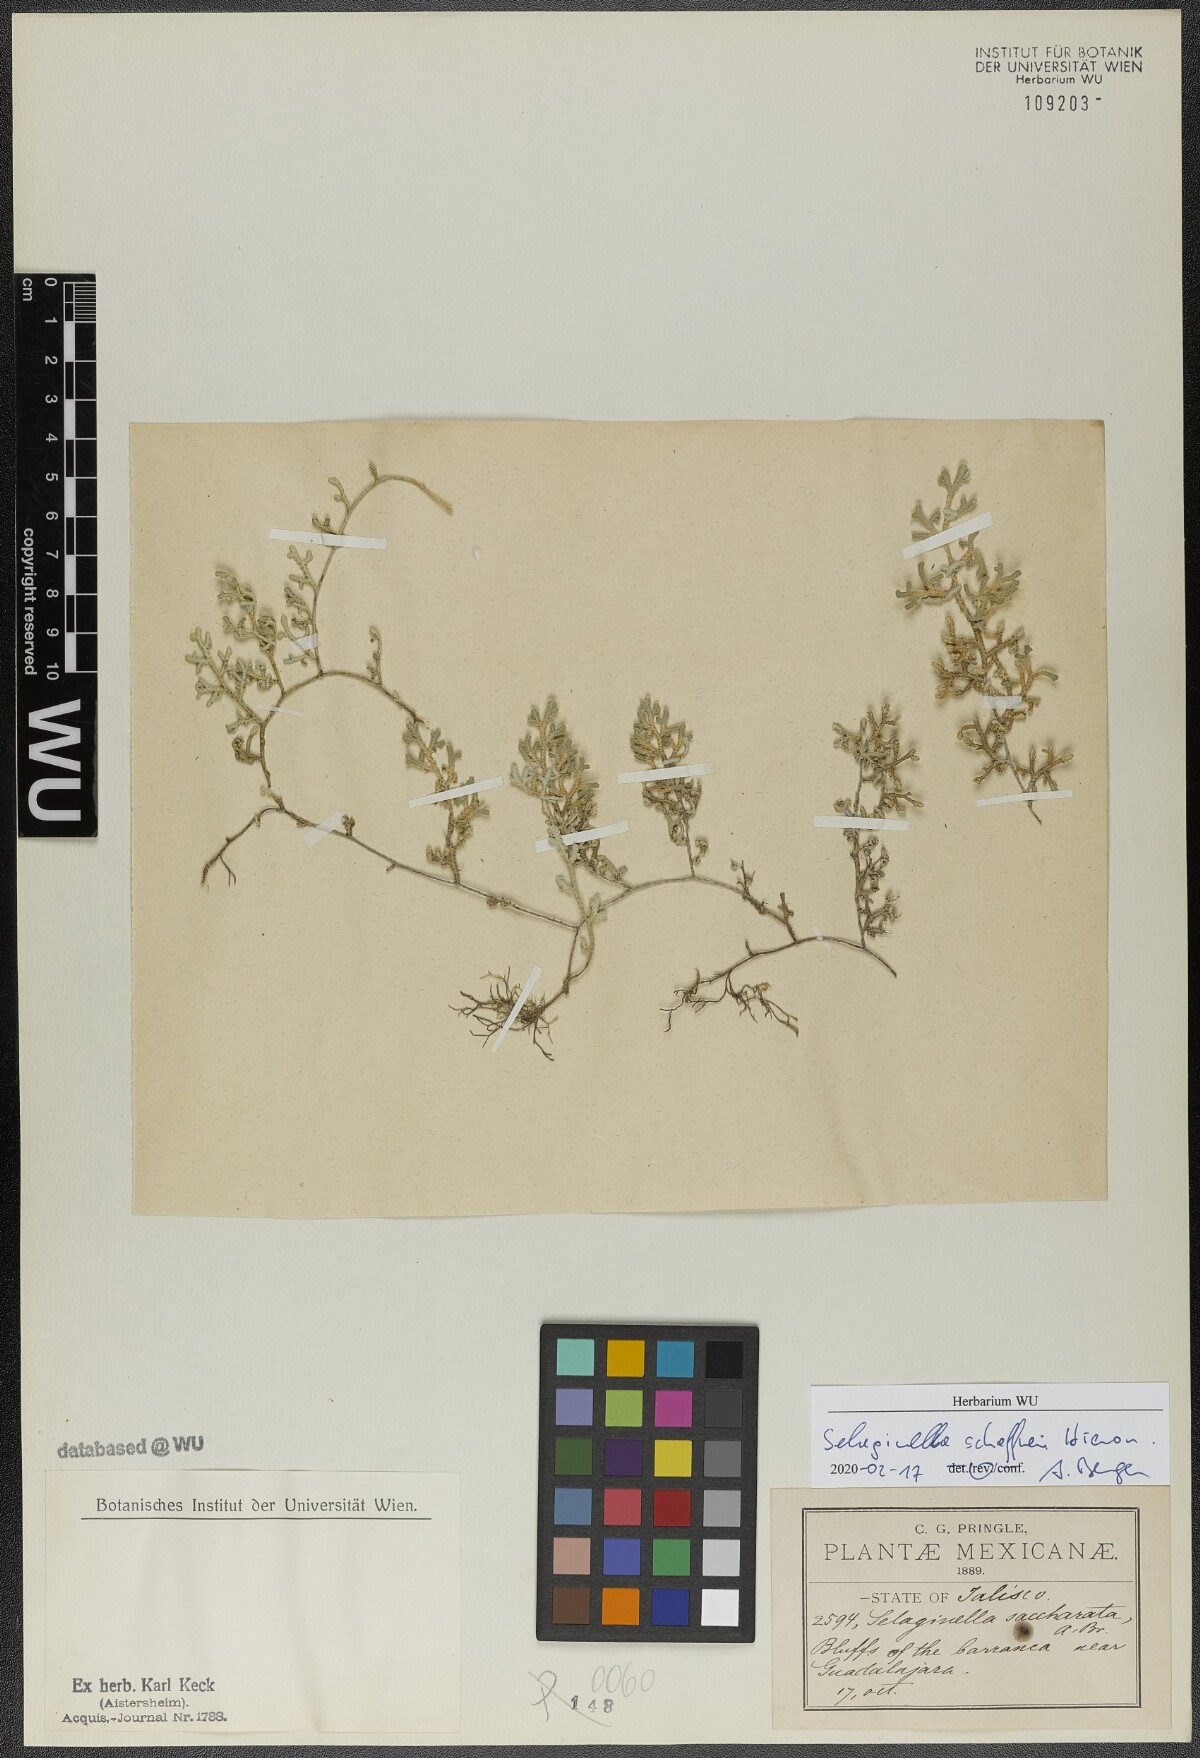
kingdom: Plantae
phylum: Tracheophyta
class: Lycopodiopsida
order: Selaginellales
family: Selaginellaceae
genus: Selaginella
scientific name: Selaginella schaffneri
